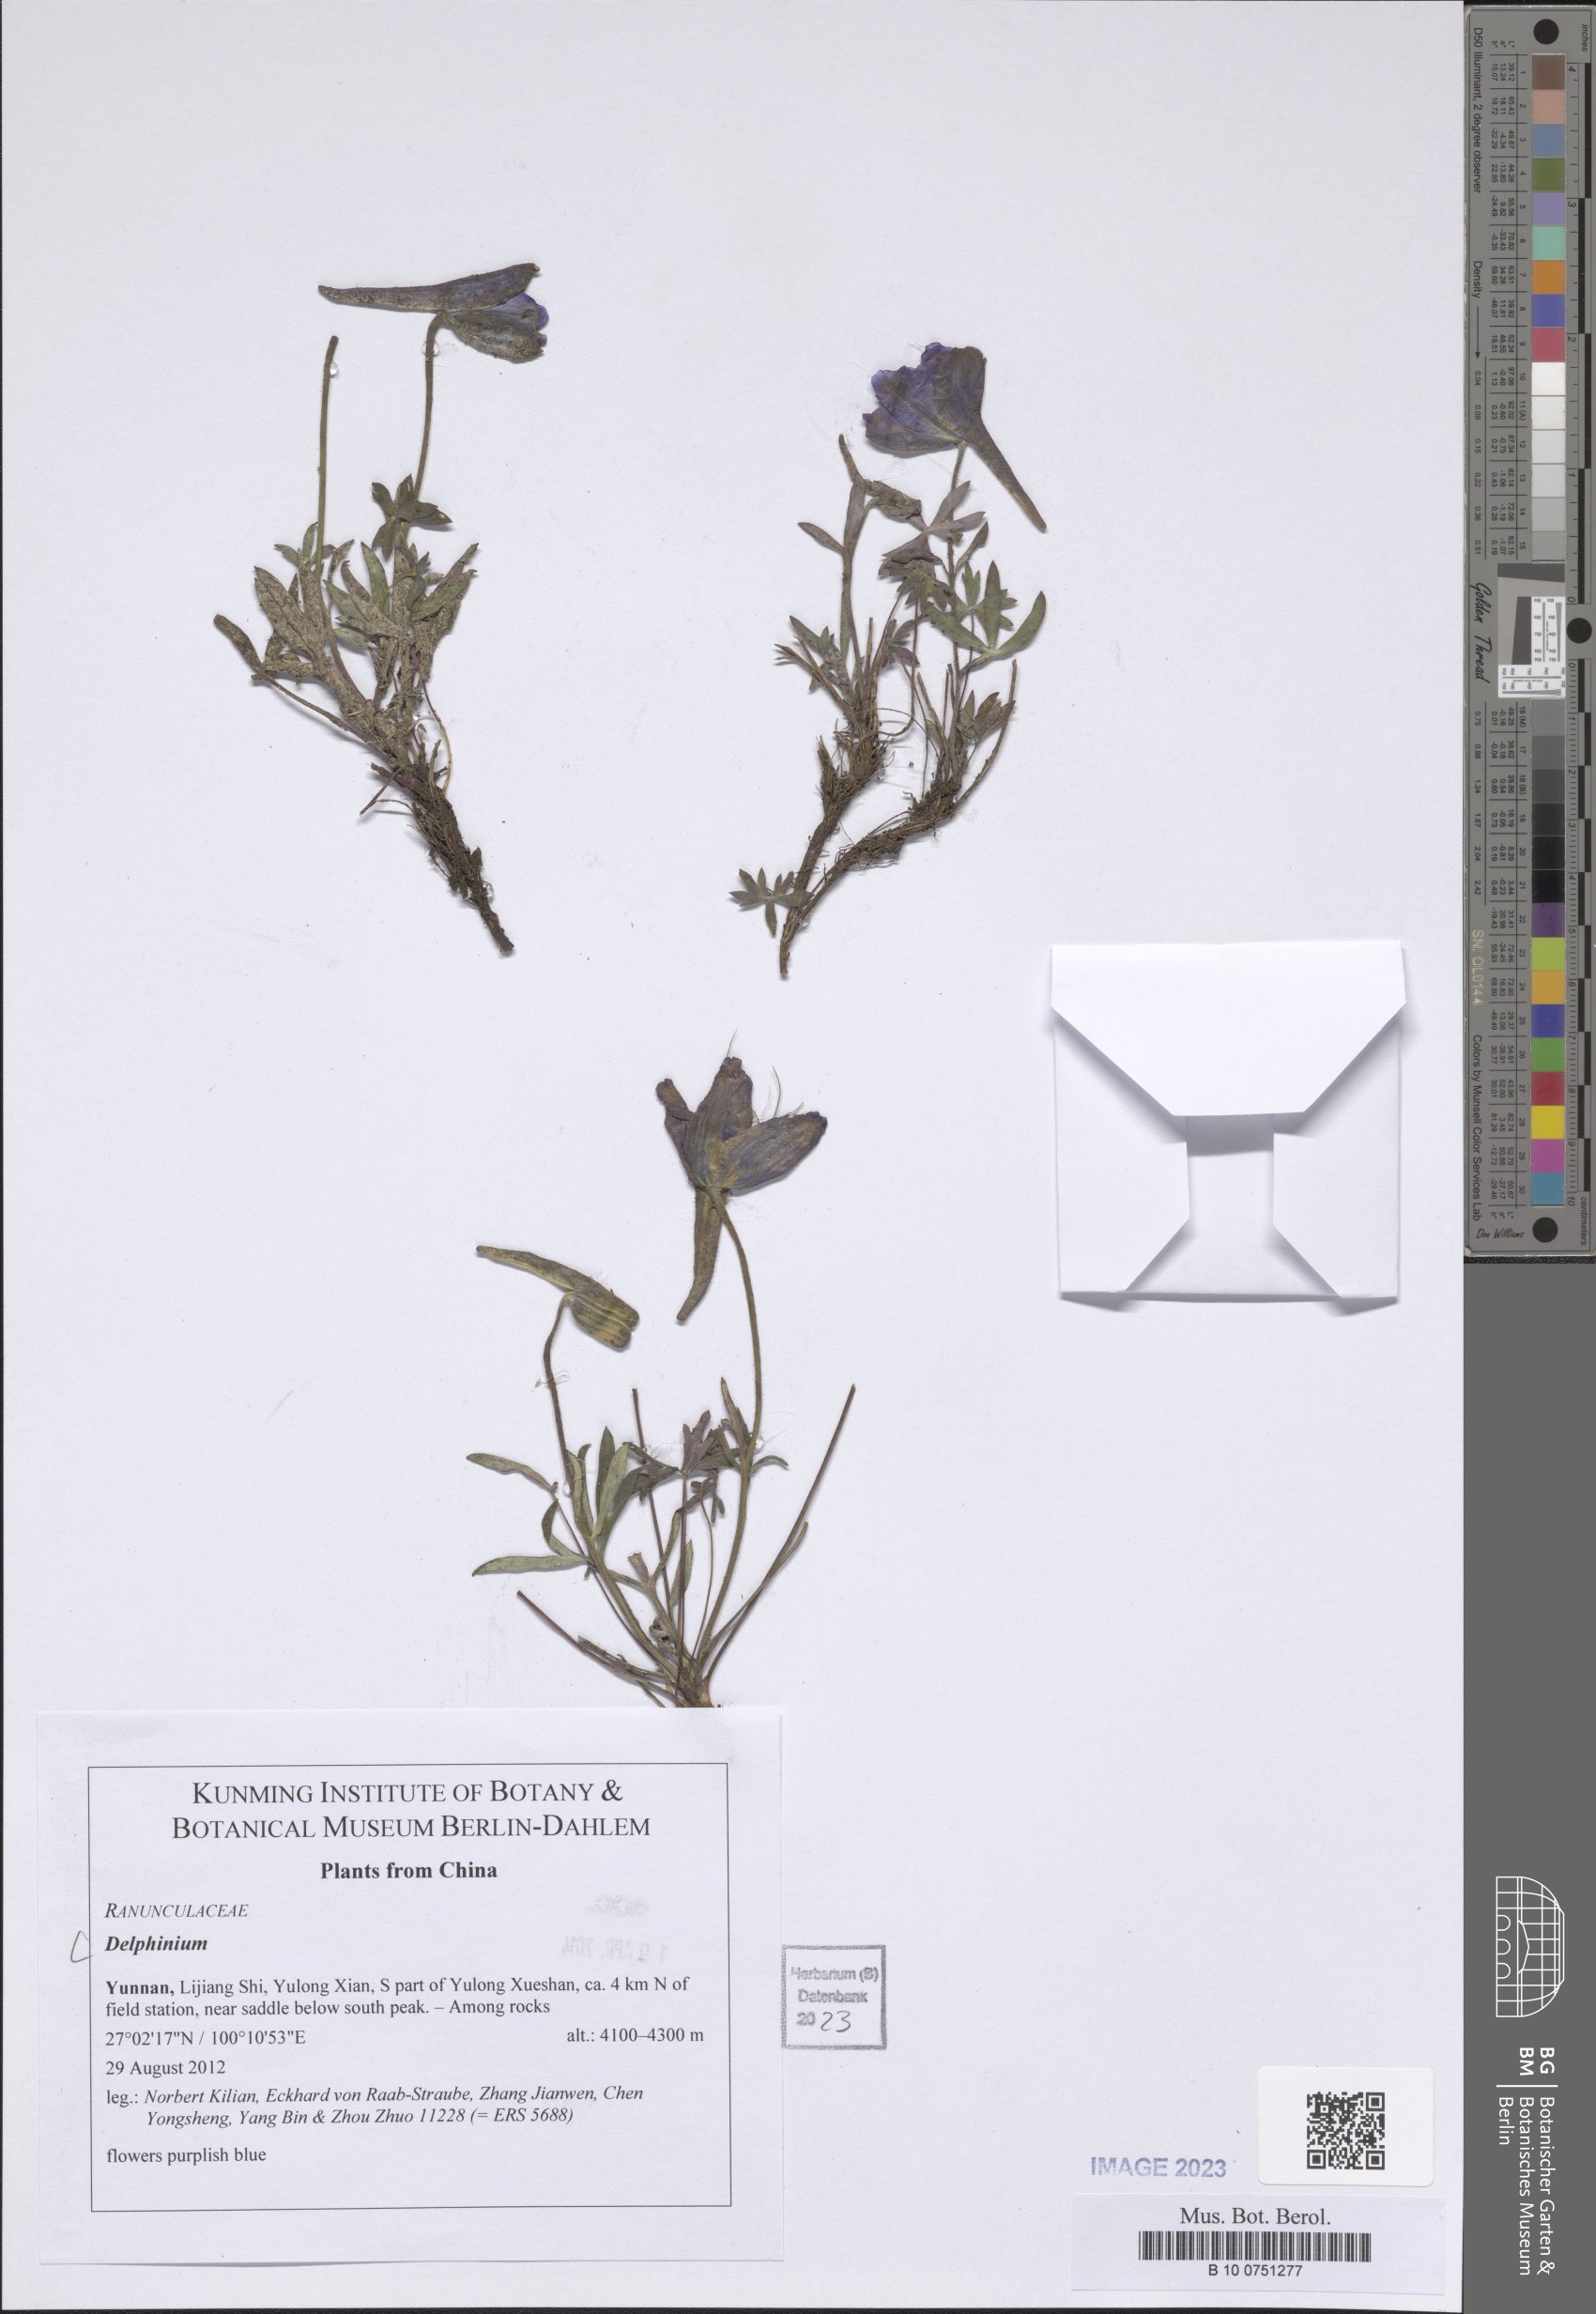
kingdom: Plantae
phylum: Tracheophyta
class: Magnoliopsida
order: Ranunculales
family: Ranunculaceae
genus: Delphinium
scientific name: Delphinium
